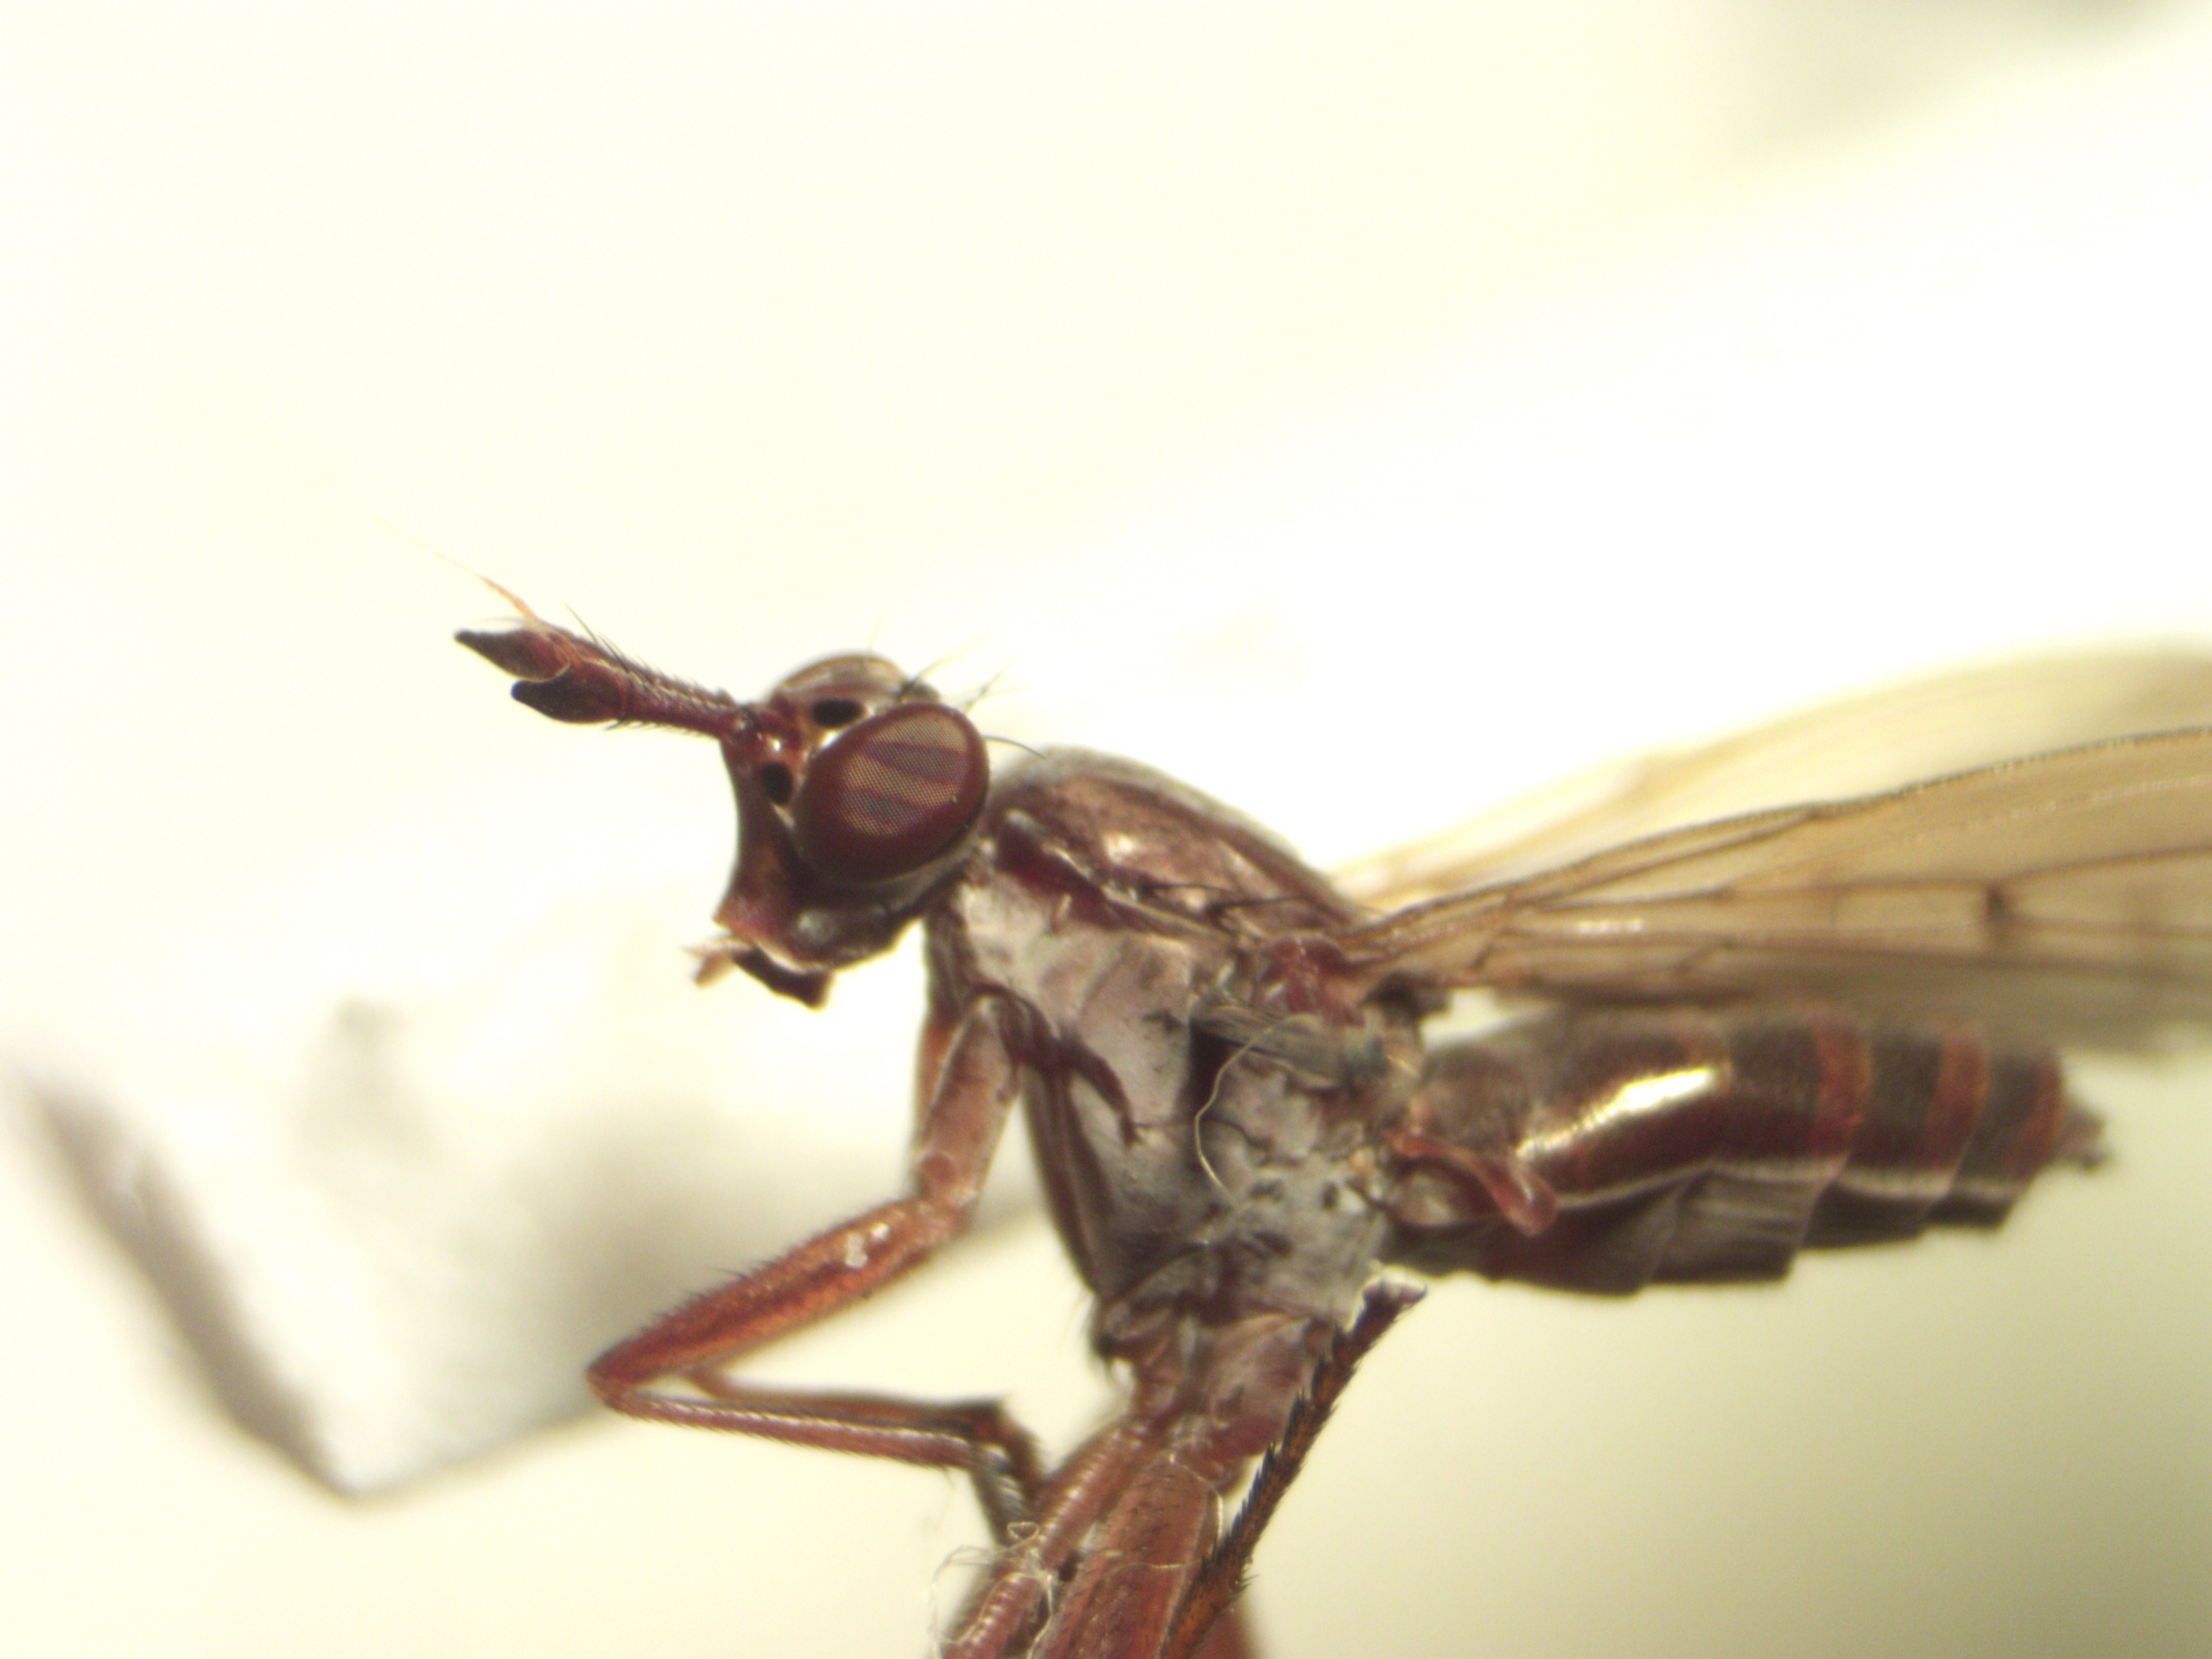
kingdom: Animalia
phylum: Arthropoda
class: Insecta
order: Diptera
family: Sciomyzidae
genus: Sepedon
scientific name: Sepedon spinipes
